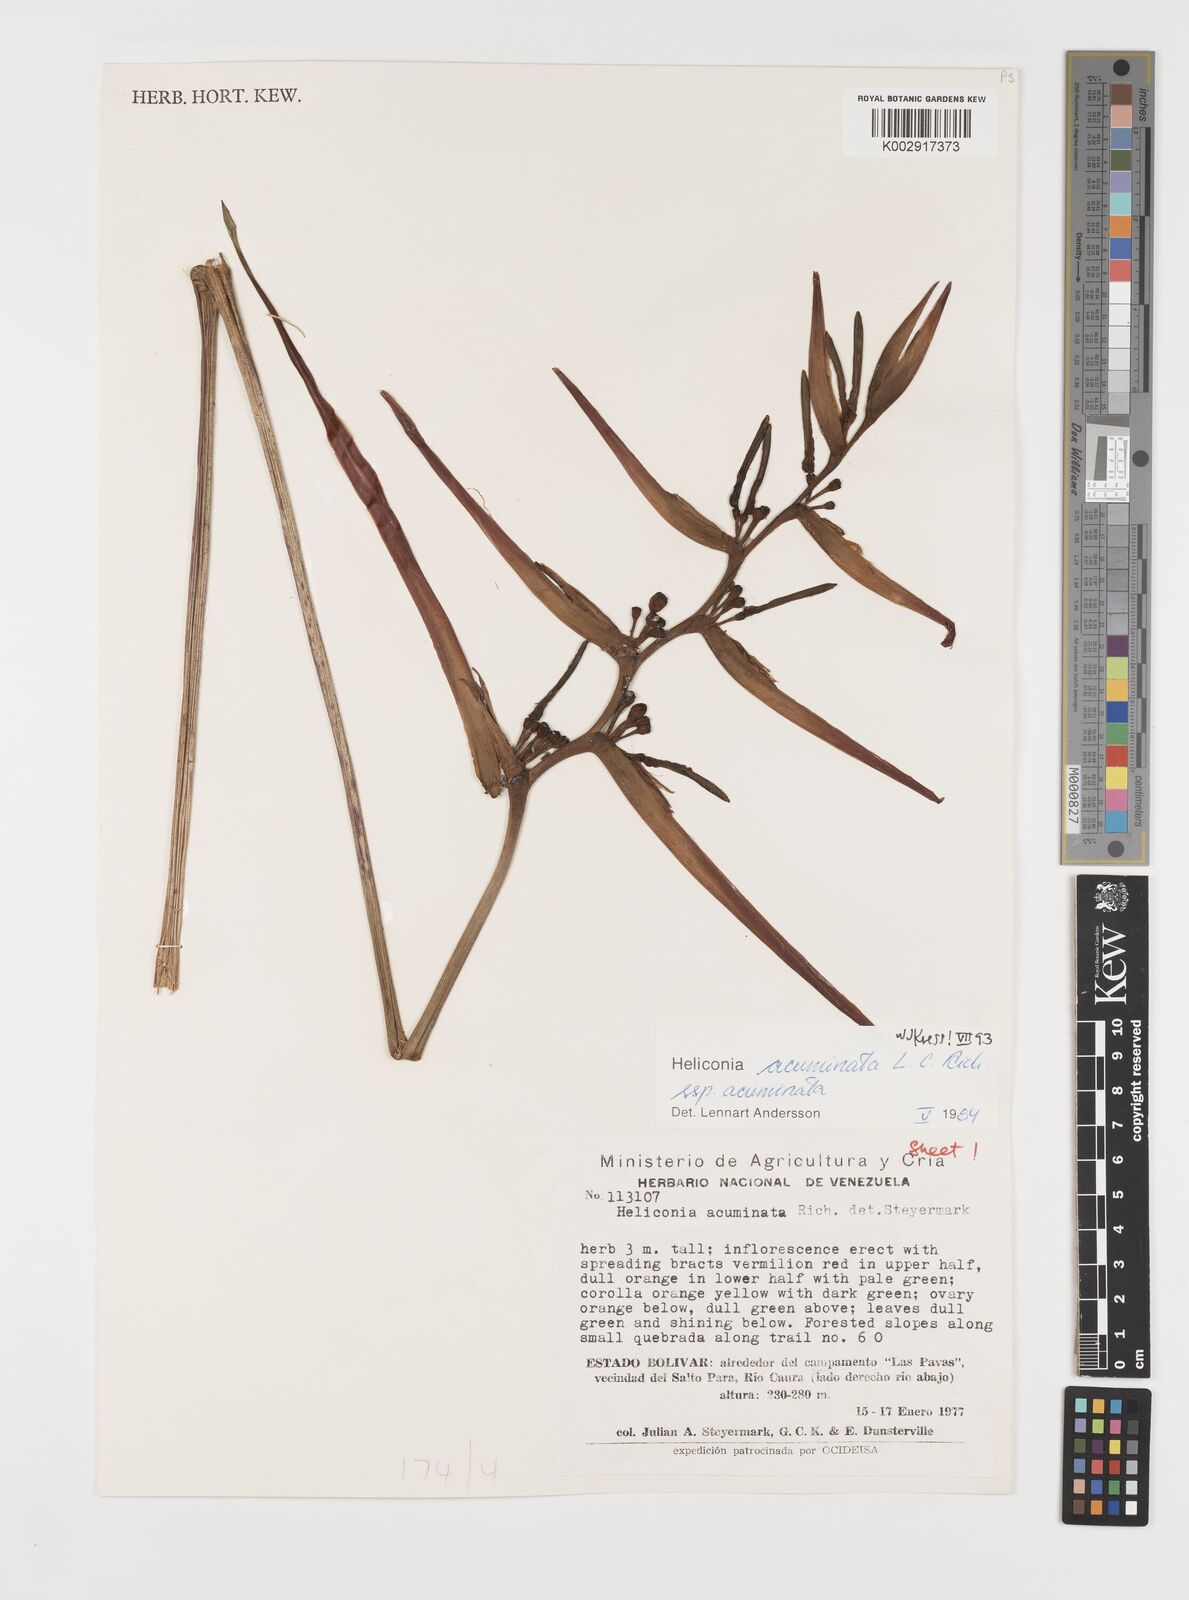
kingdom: Plantae
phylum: Tracheophyta
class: Liliopsida
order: Zingiberales
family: Heliconiaceae
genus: Heliconia
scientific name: Heliconia acuminata
